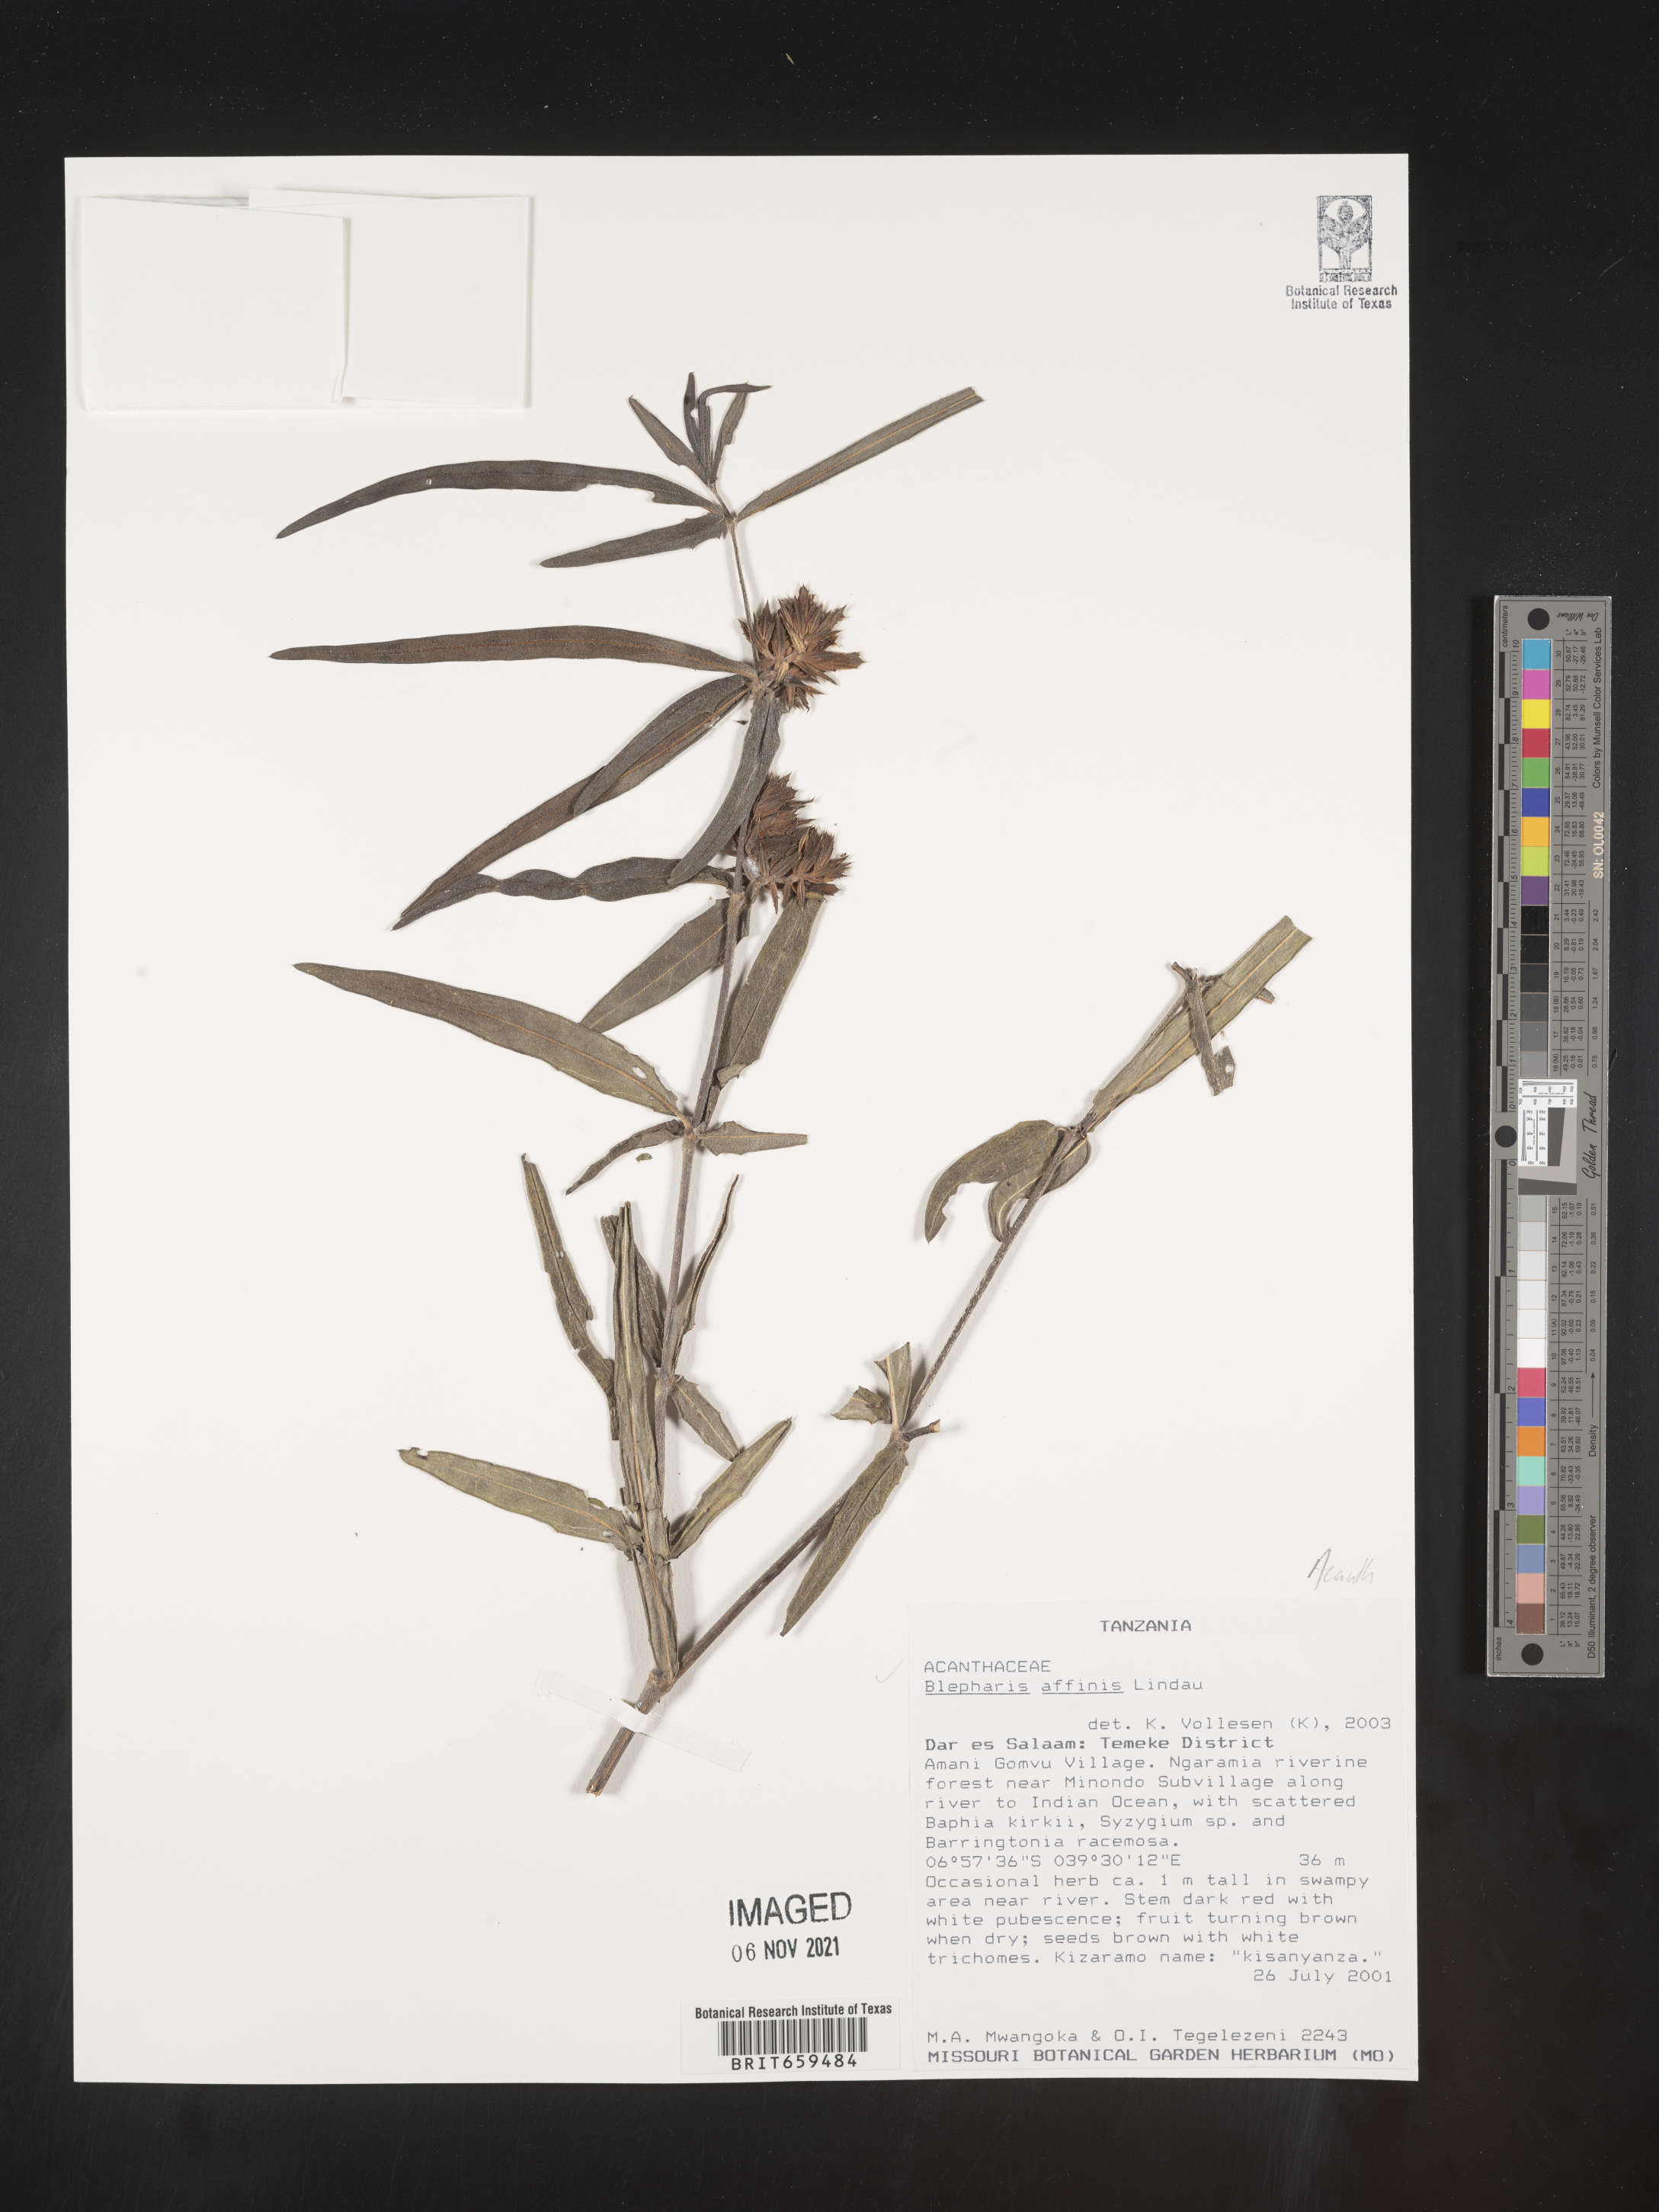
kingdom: Plantae
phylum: Tracheophyta
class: Magnoliopsida
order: Lamiales
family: Acanthaceae
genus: Blepharis
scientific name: Blepharis affinis
